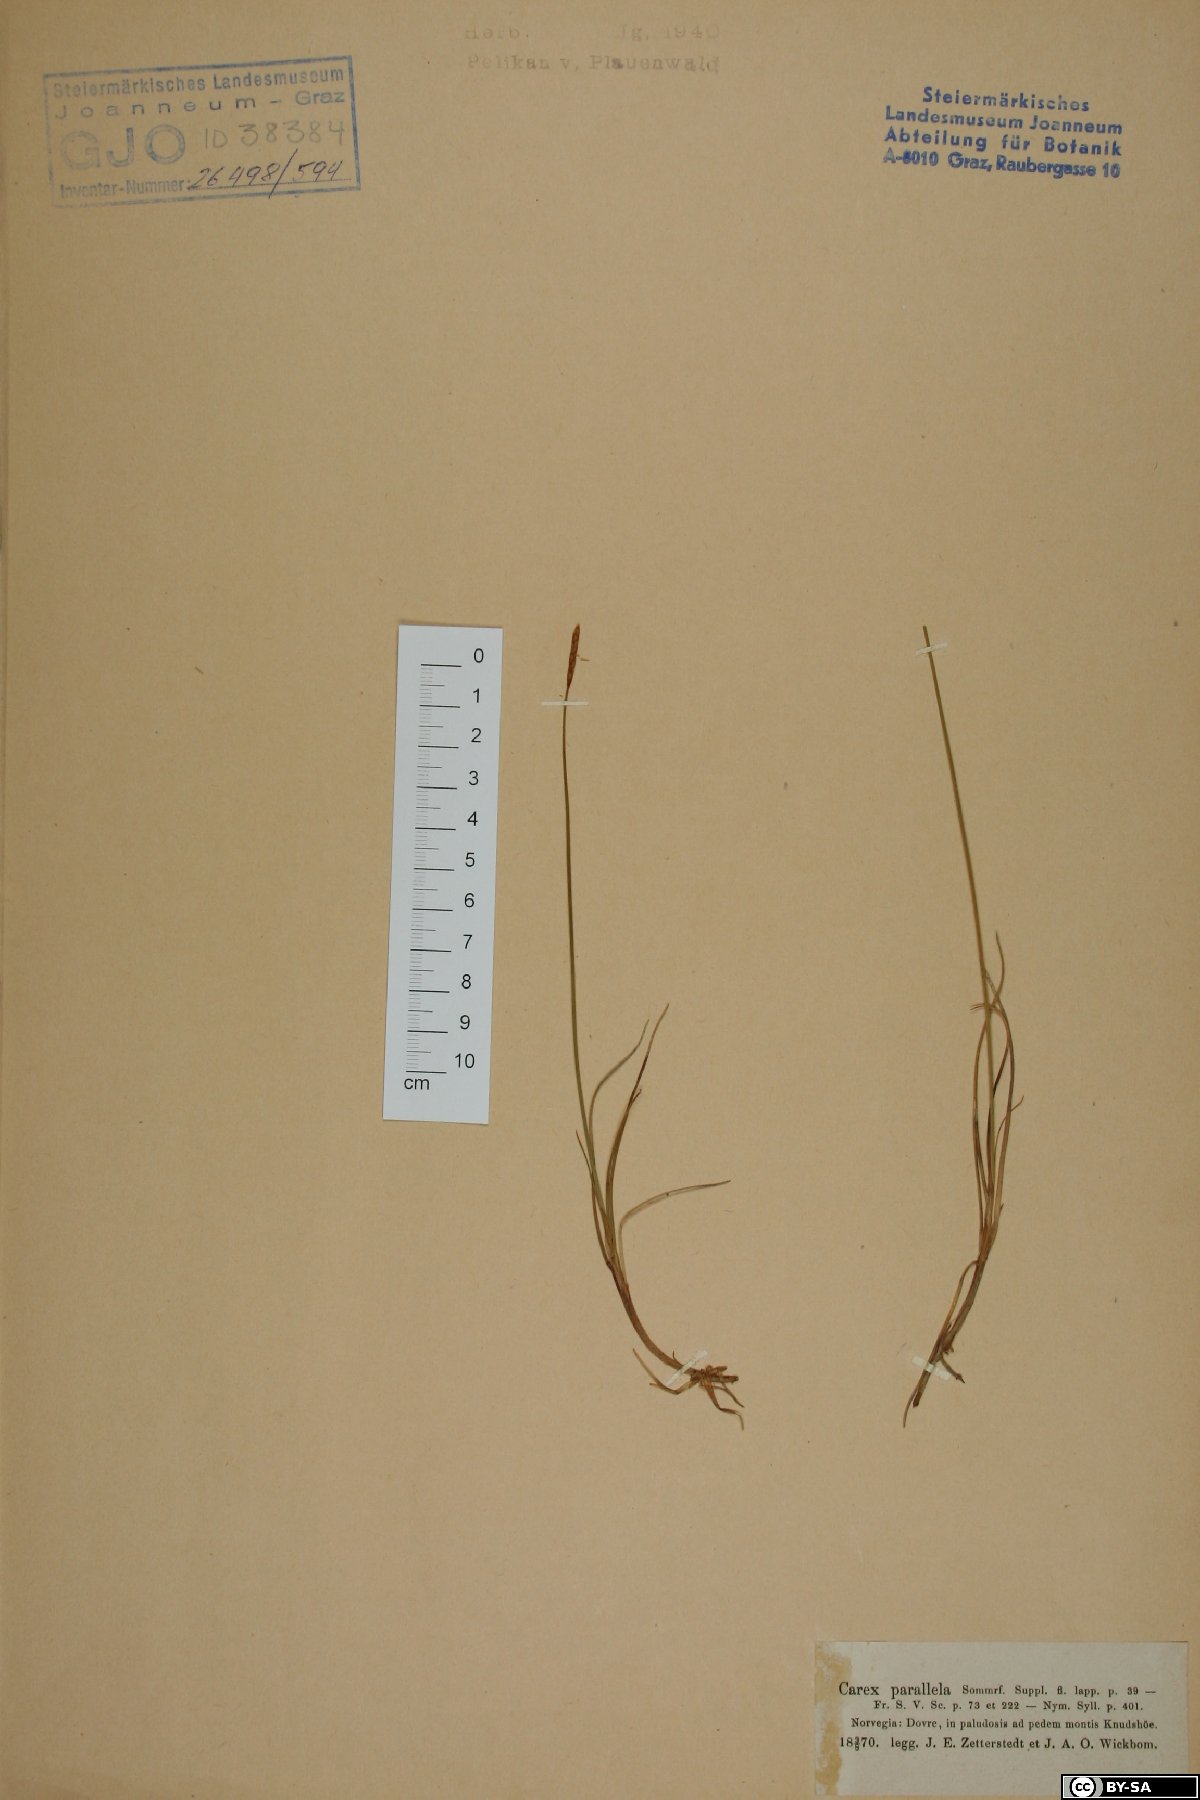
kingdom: Plantae
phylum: Tracheophyta
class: Liliopsida
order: Poales
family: Cyperaceae
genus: Carex
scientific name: Carex parallela
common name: Parallel sedge
